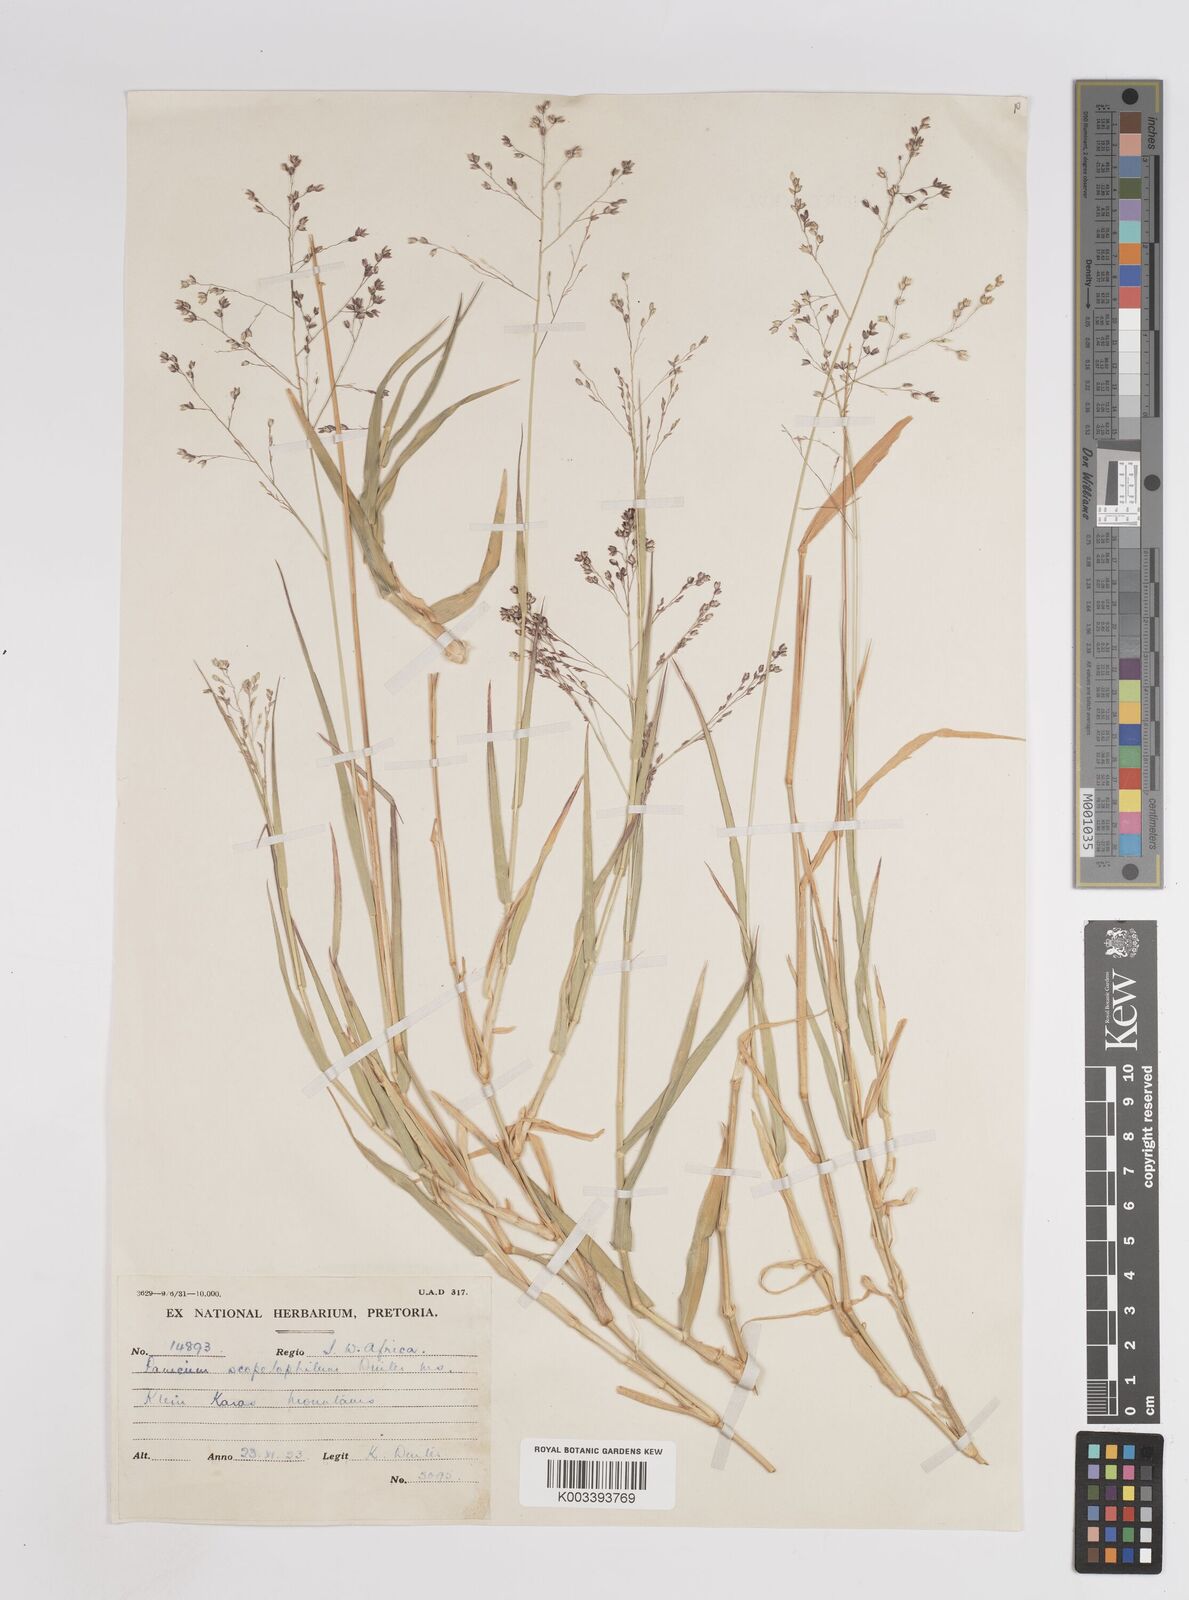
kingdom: Plantae
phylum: Tracheophyta
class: Liliopsida
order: Poales
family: Poaceae
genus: Panicum
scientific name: Panicum arbusculum
